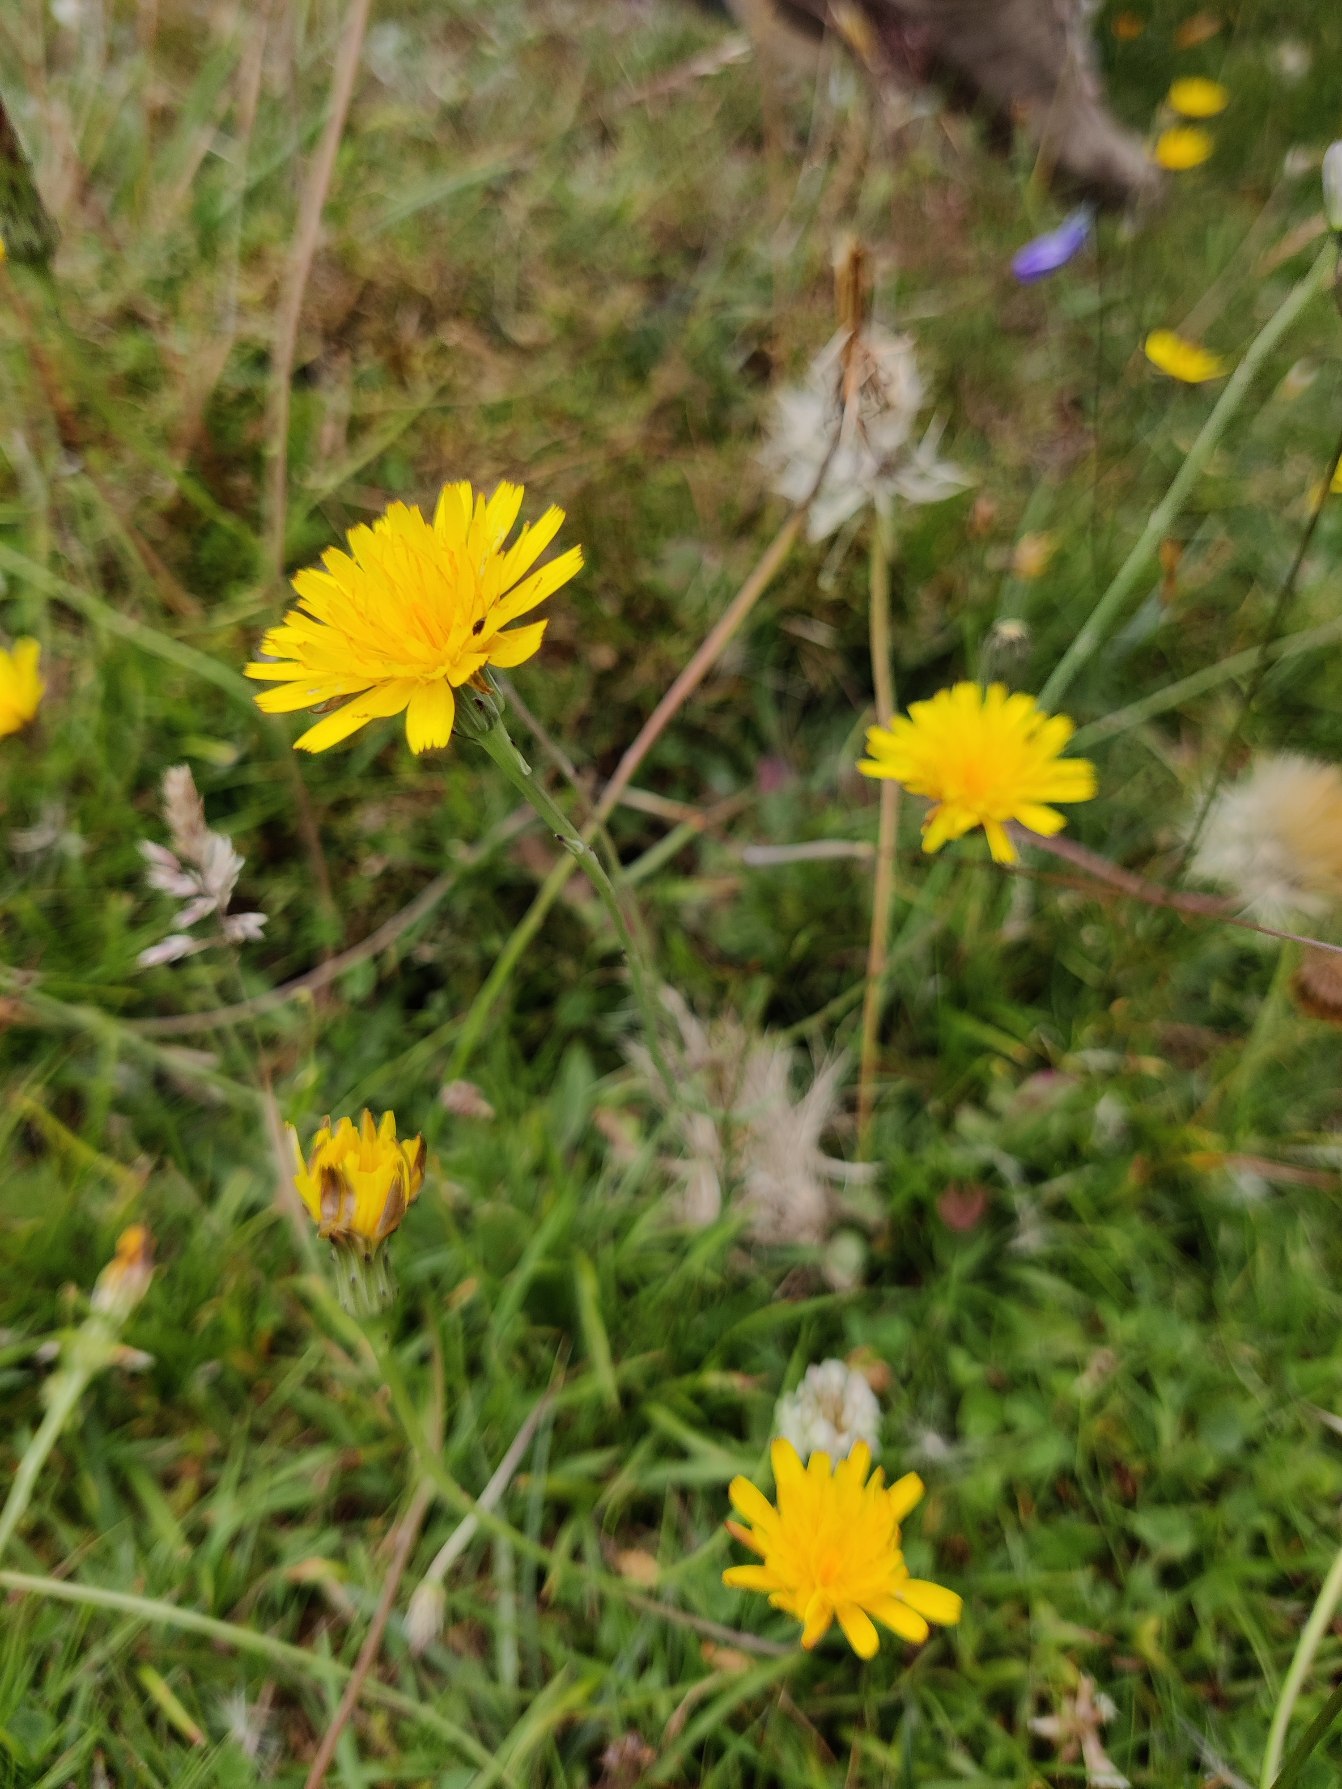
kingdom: Plantae
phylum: Tracheophyta
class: Magnoliopsida
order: Asterales
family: Asteraceae
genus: Hypochaeris
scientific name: Hypochaeris radicata
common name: Almindelig kongepen
